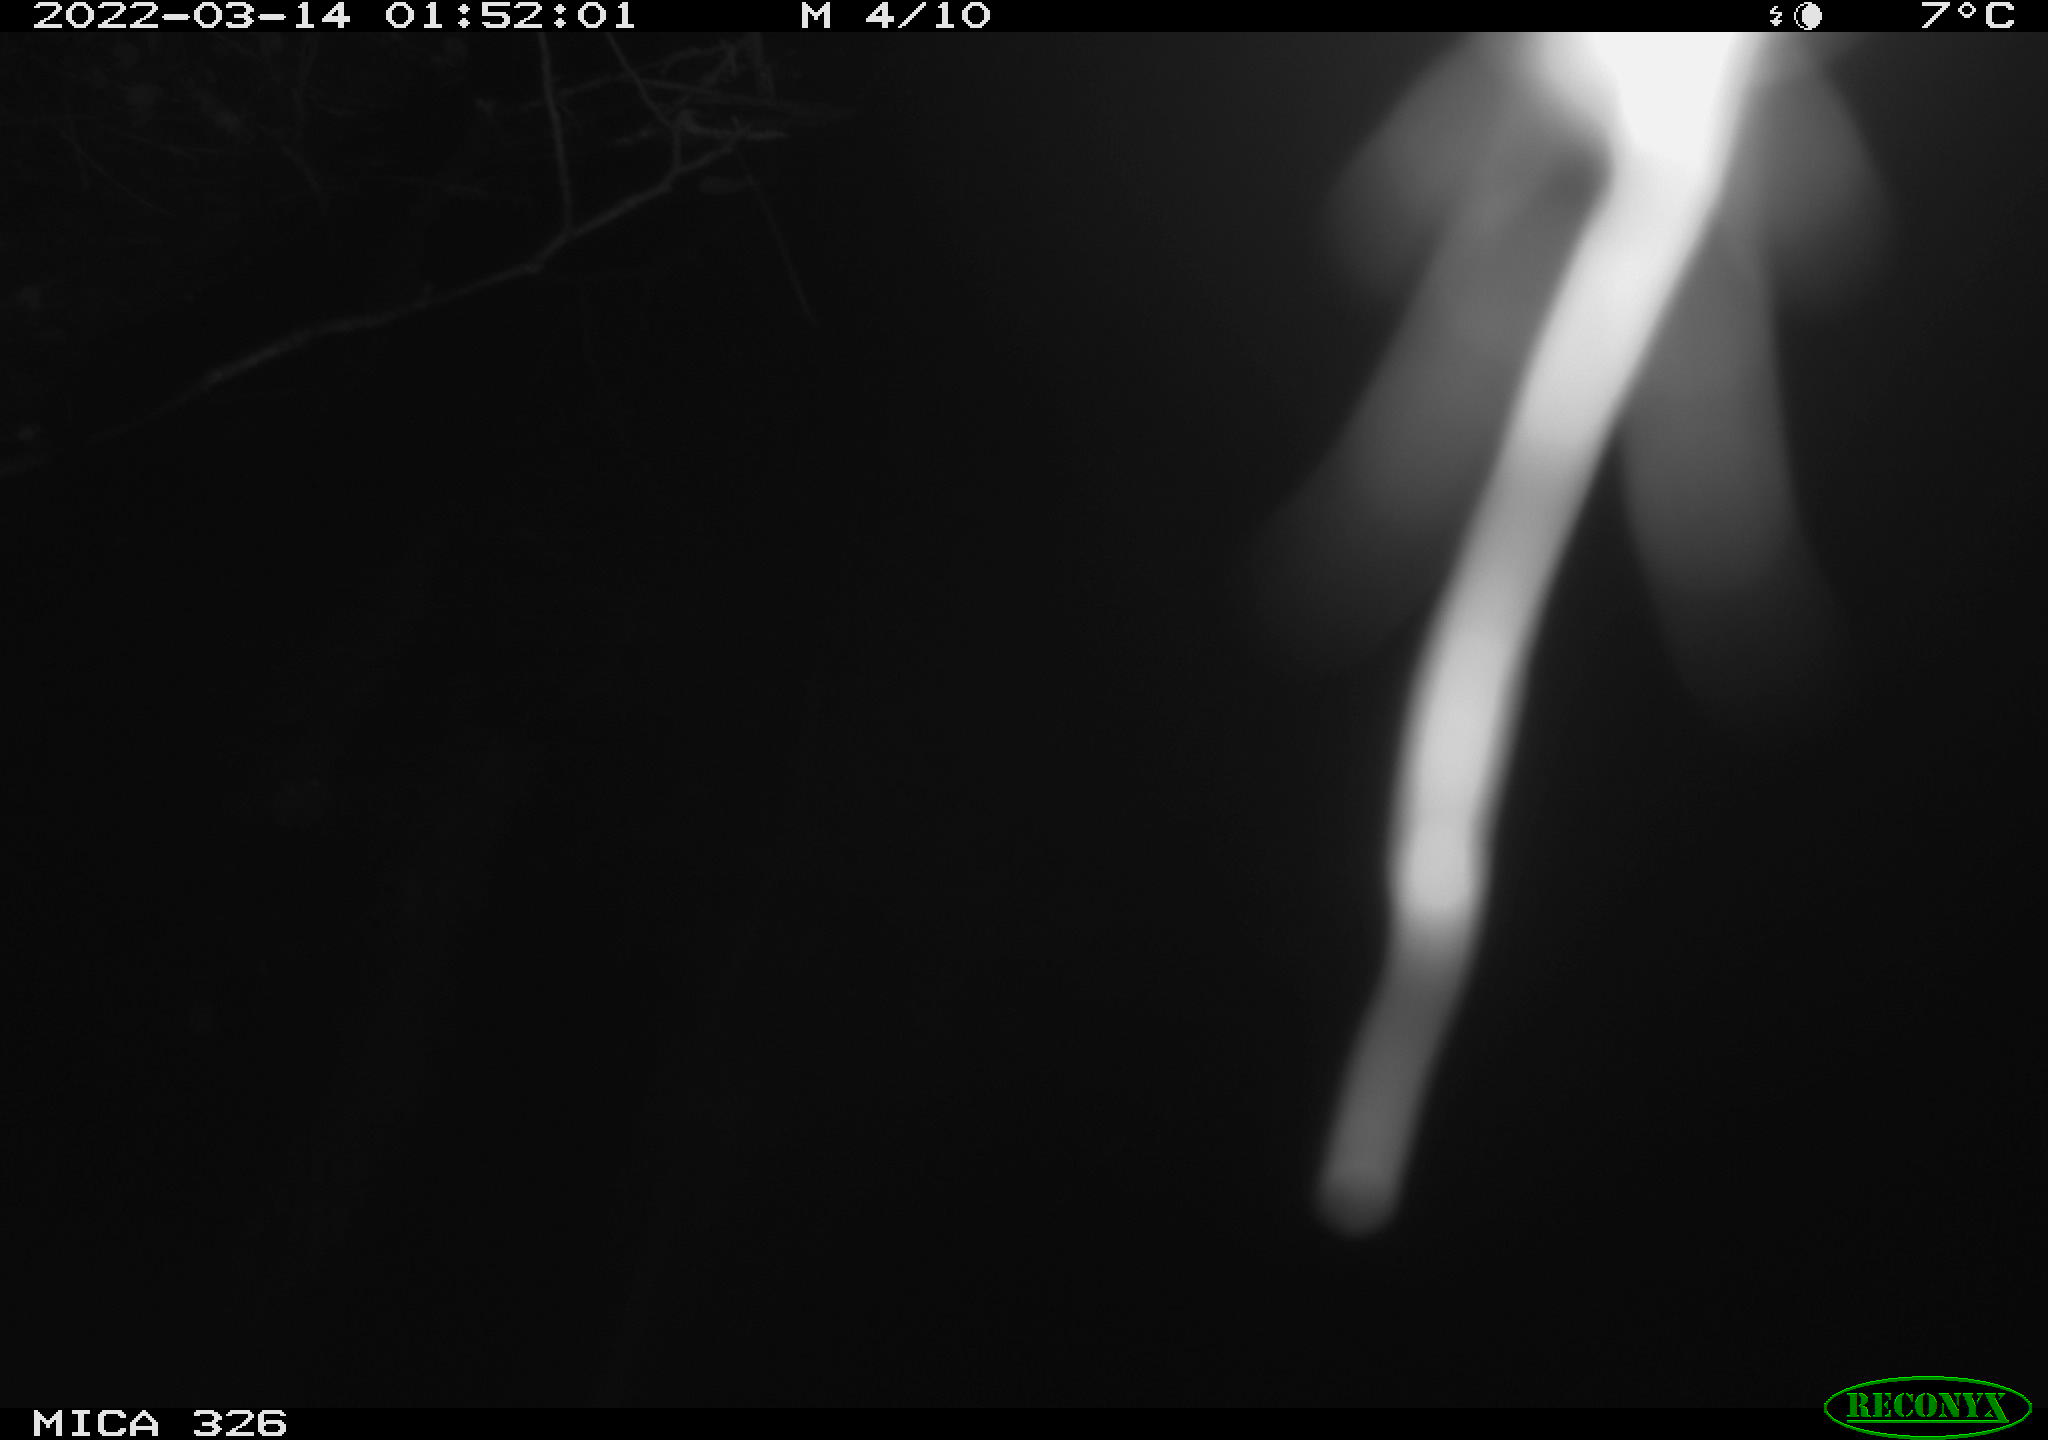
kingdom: Animalia
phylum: Chordata
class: Mammalia
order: Rodentia
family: Muridae
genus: Rattus
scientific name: Rattus norvegicus
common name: Brown rat
